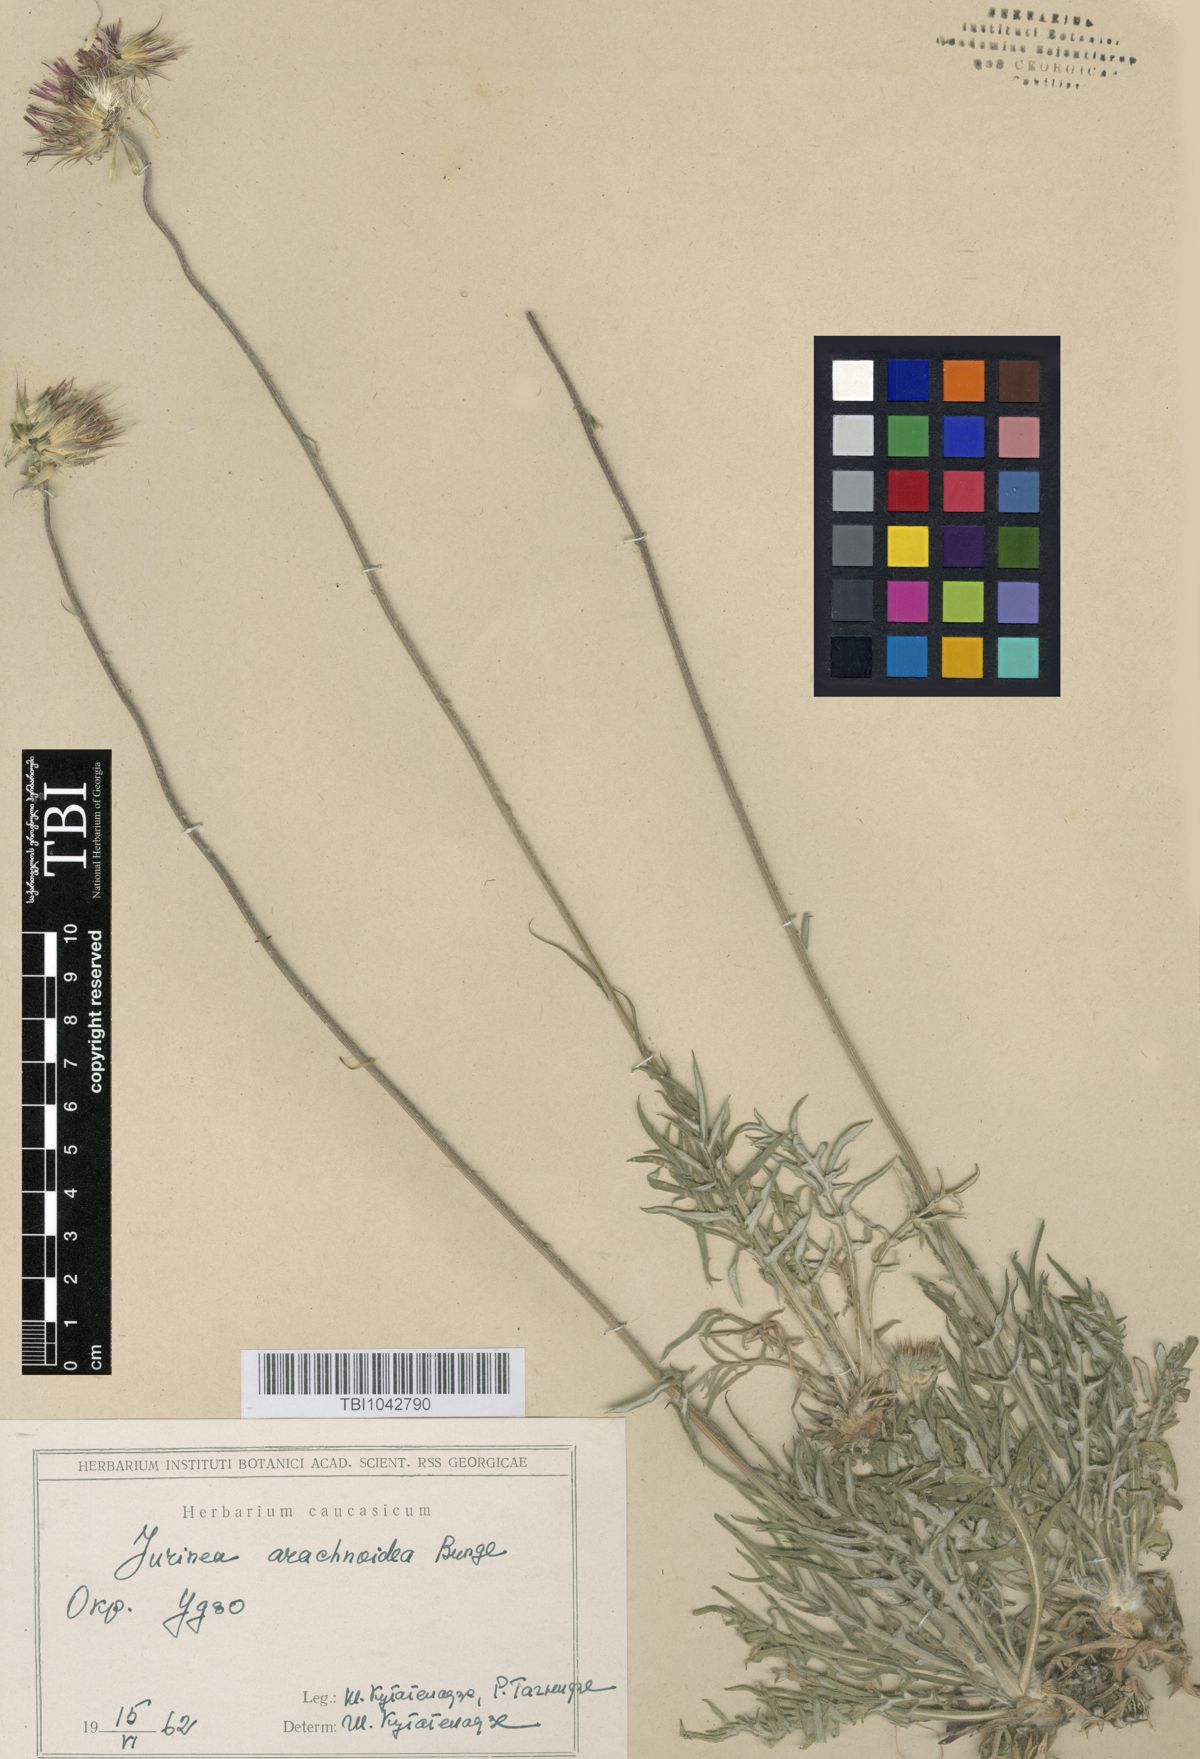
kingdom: Plantae
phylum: Tracheophyta
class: Magnoliopsida
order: Asterales
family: Asteraceae
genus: Jurinea
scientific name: Jurinea blanda
